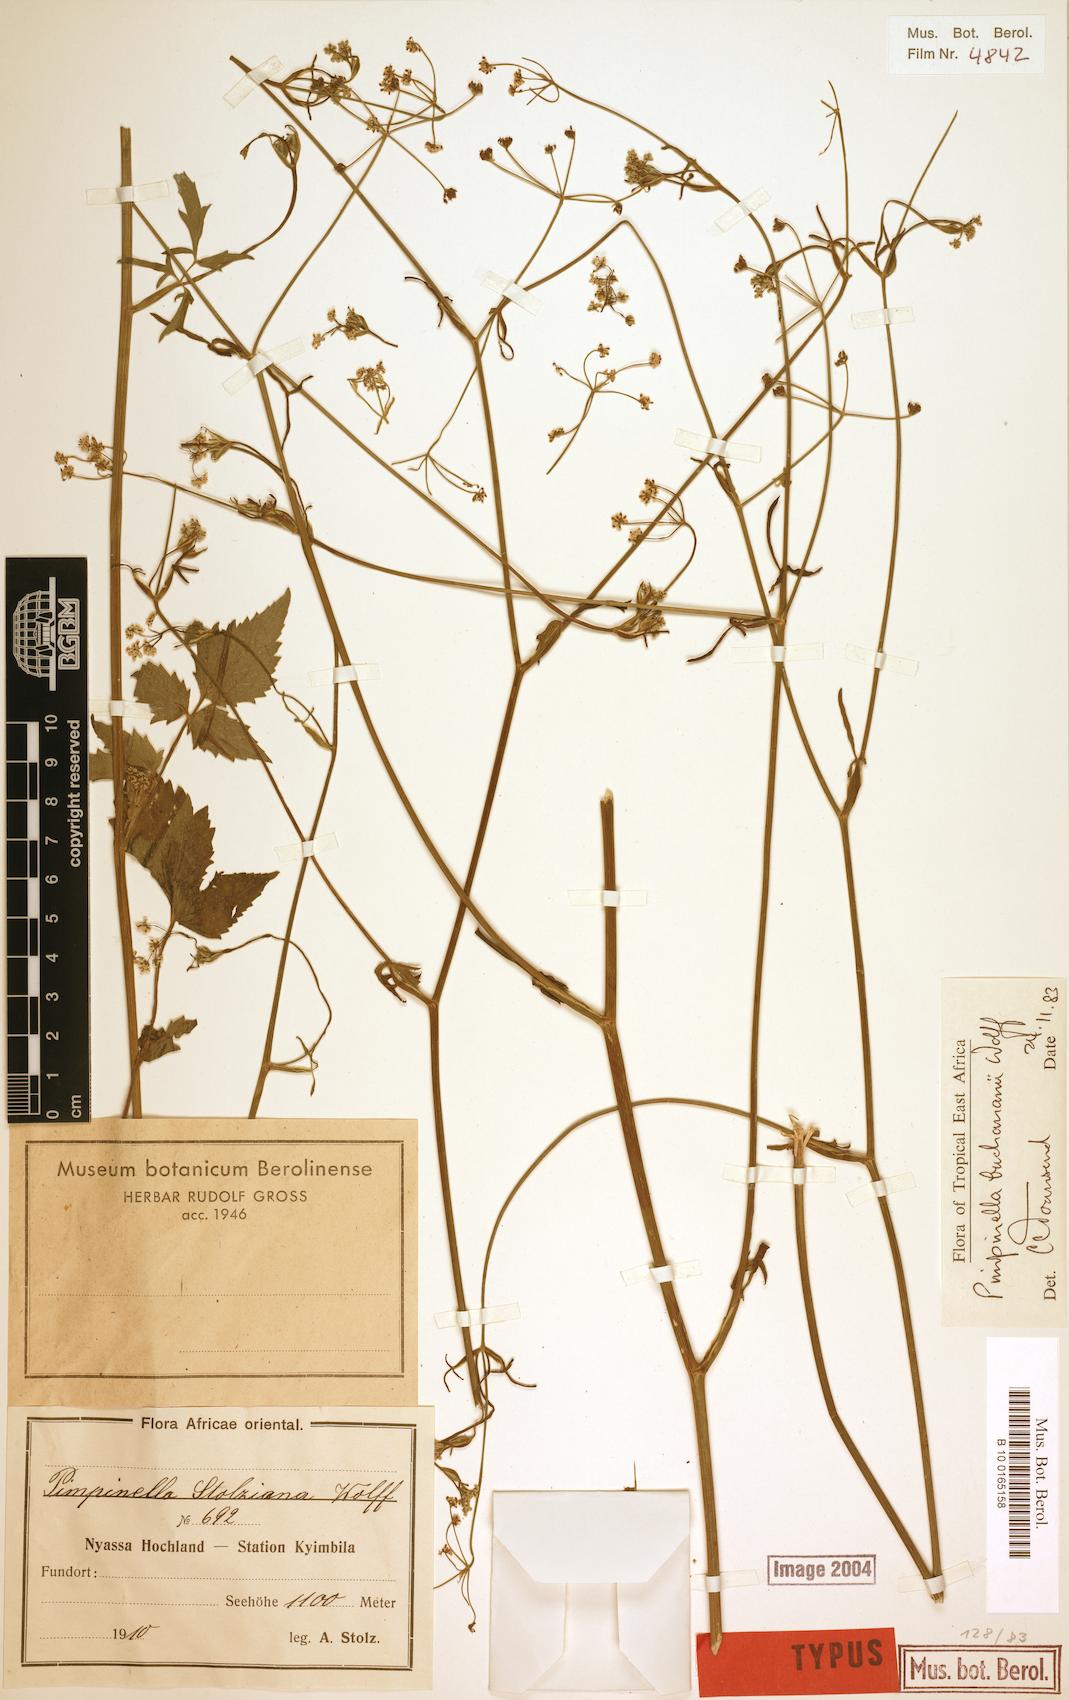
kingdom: Plantae
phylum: Tracheophyta
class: Magnoliopsida
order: Apiales
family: Apiaceae
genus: Pimpinella
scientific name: Pimpinella buchananii
